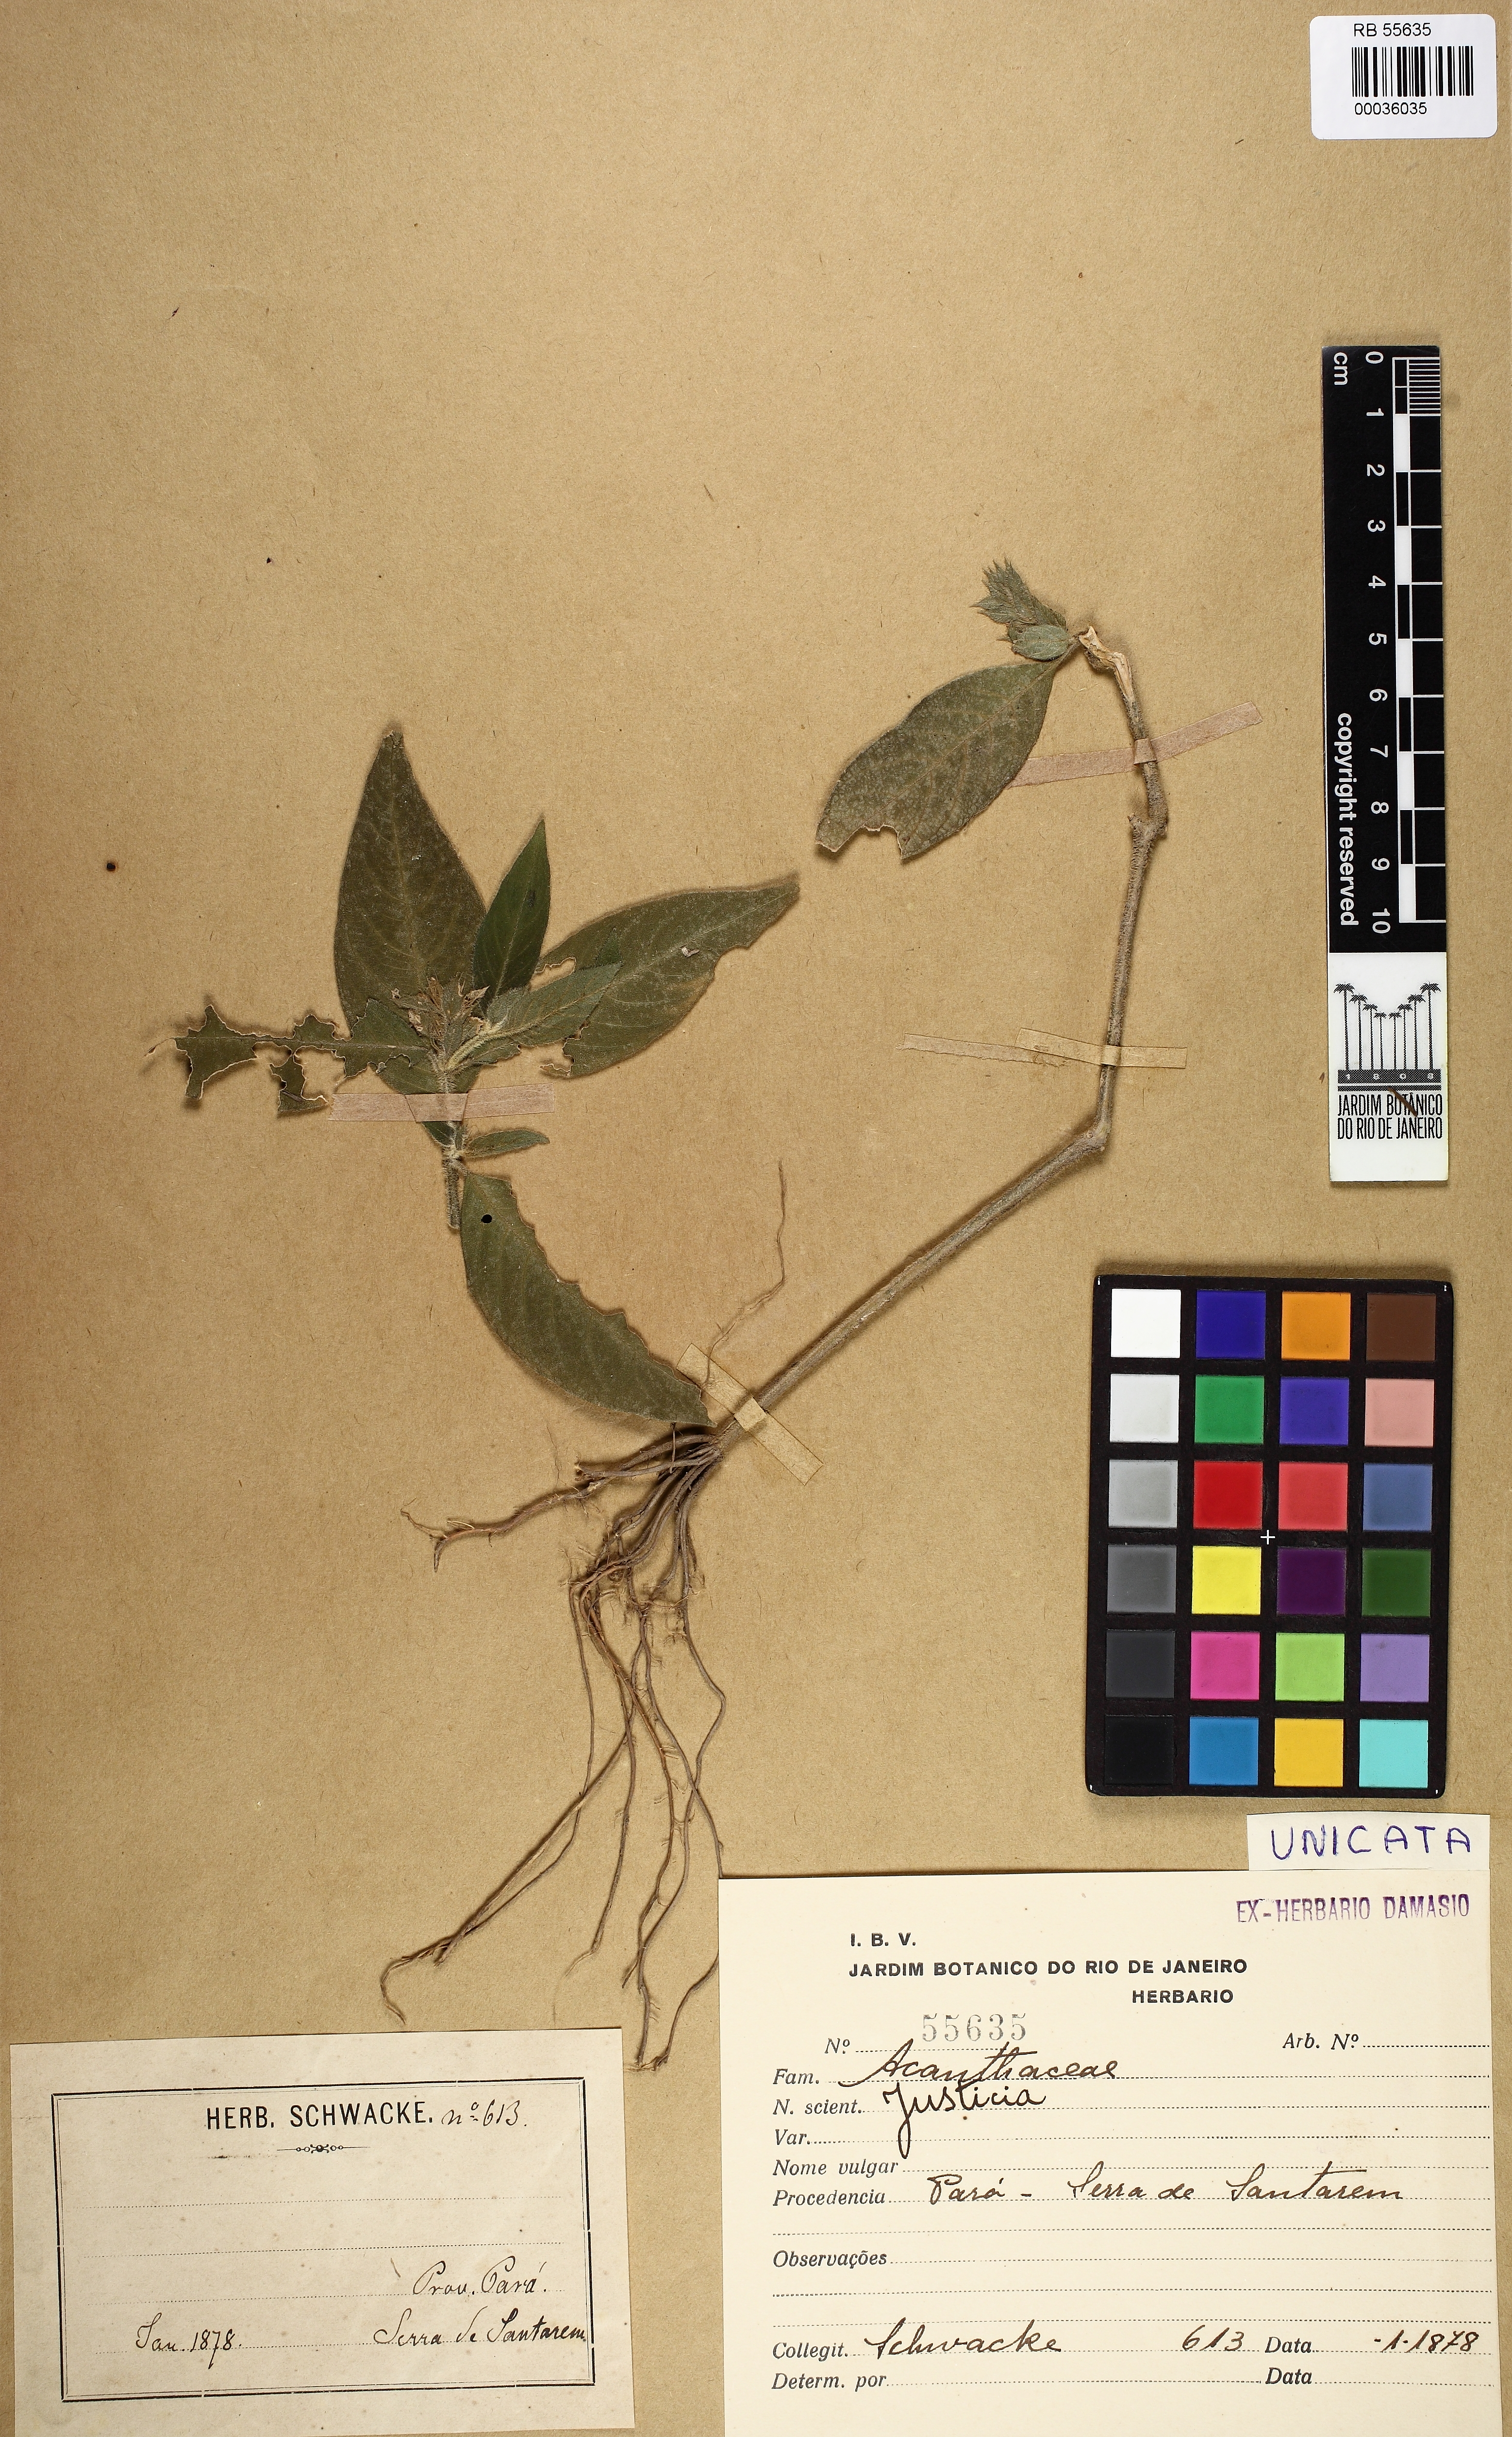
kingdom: Plantae
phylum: Tracheophyta
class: Magnoliopsida
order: Lamiales
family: Acanthaceae
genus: Dianthera
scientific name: Dianthera cayennensis
